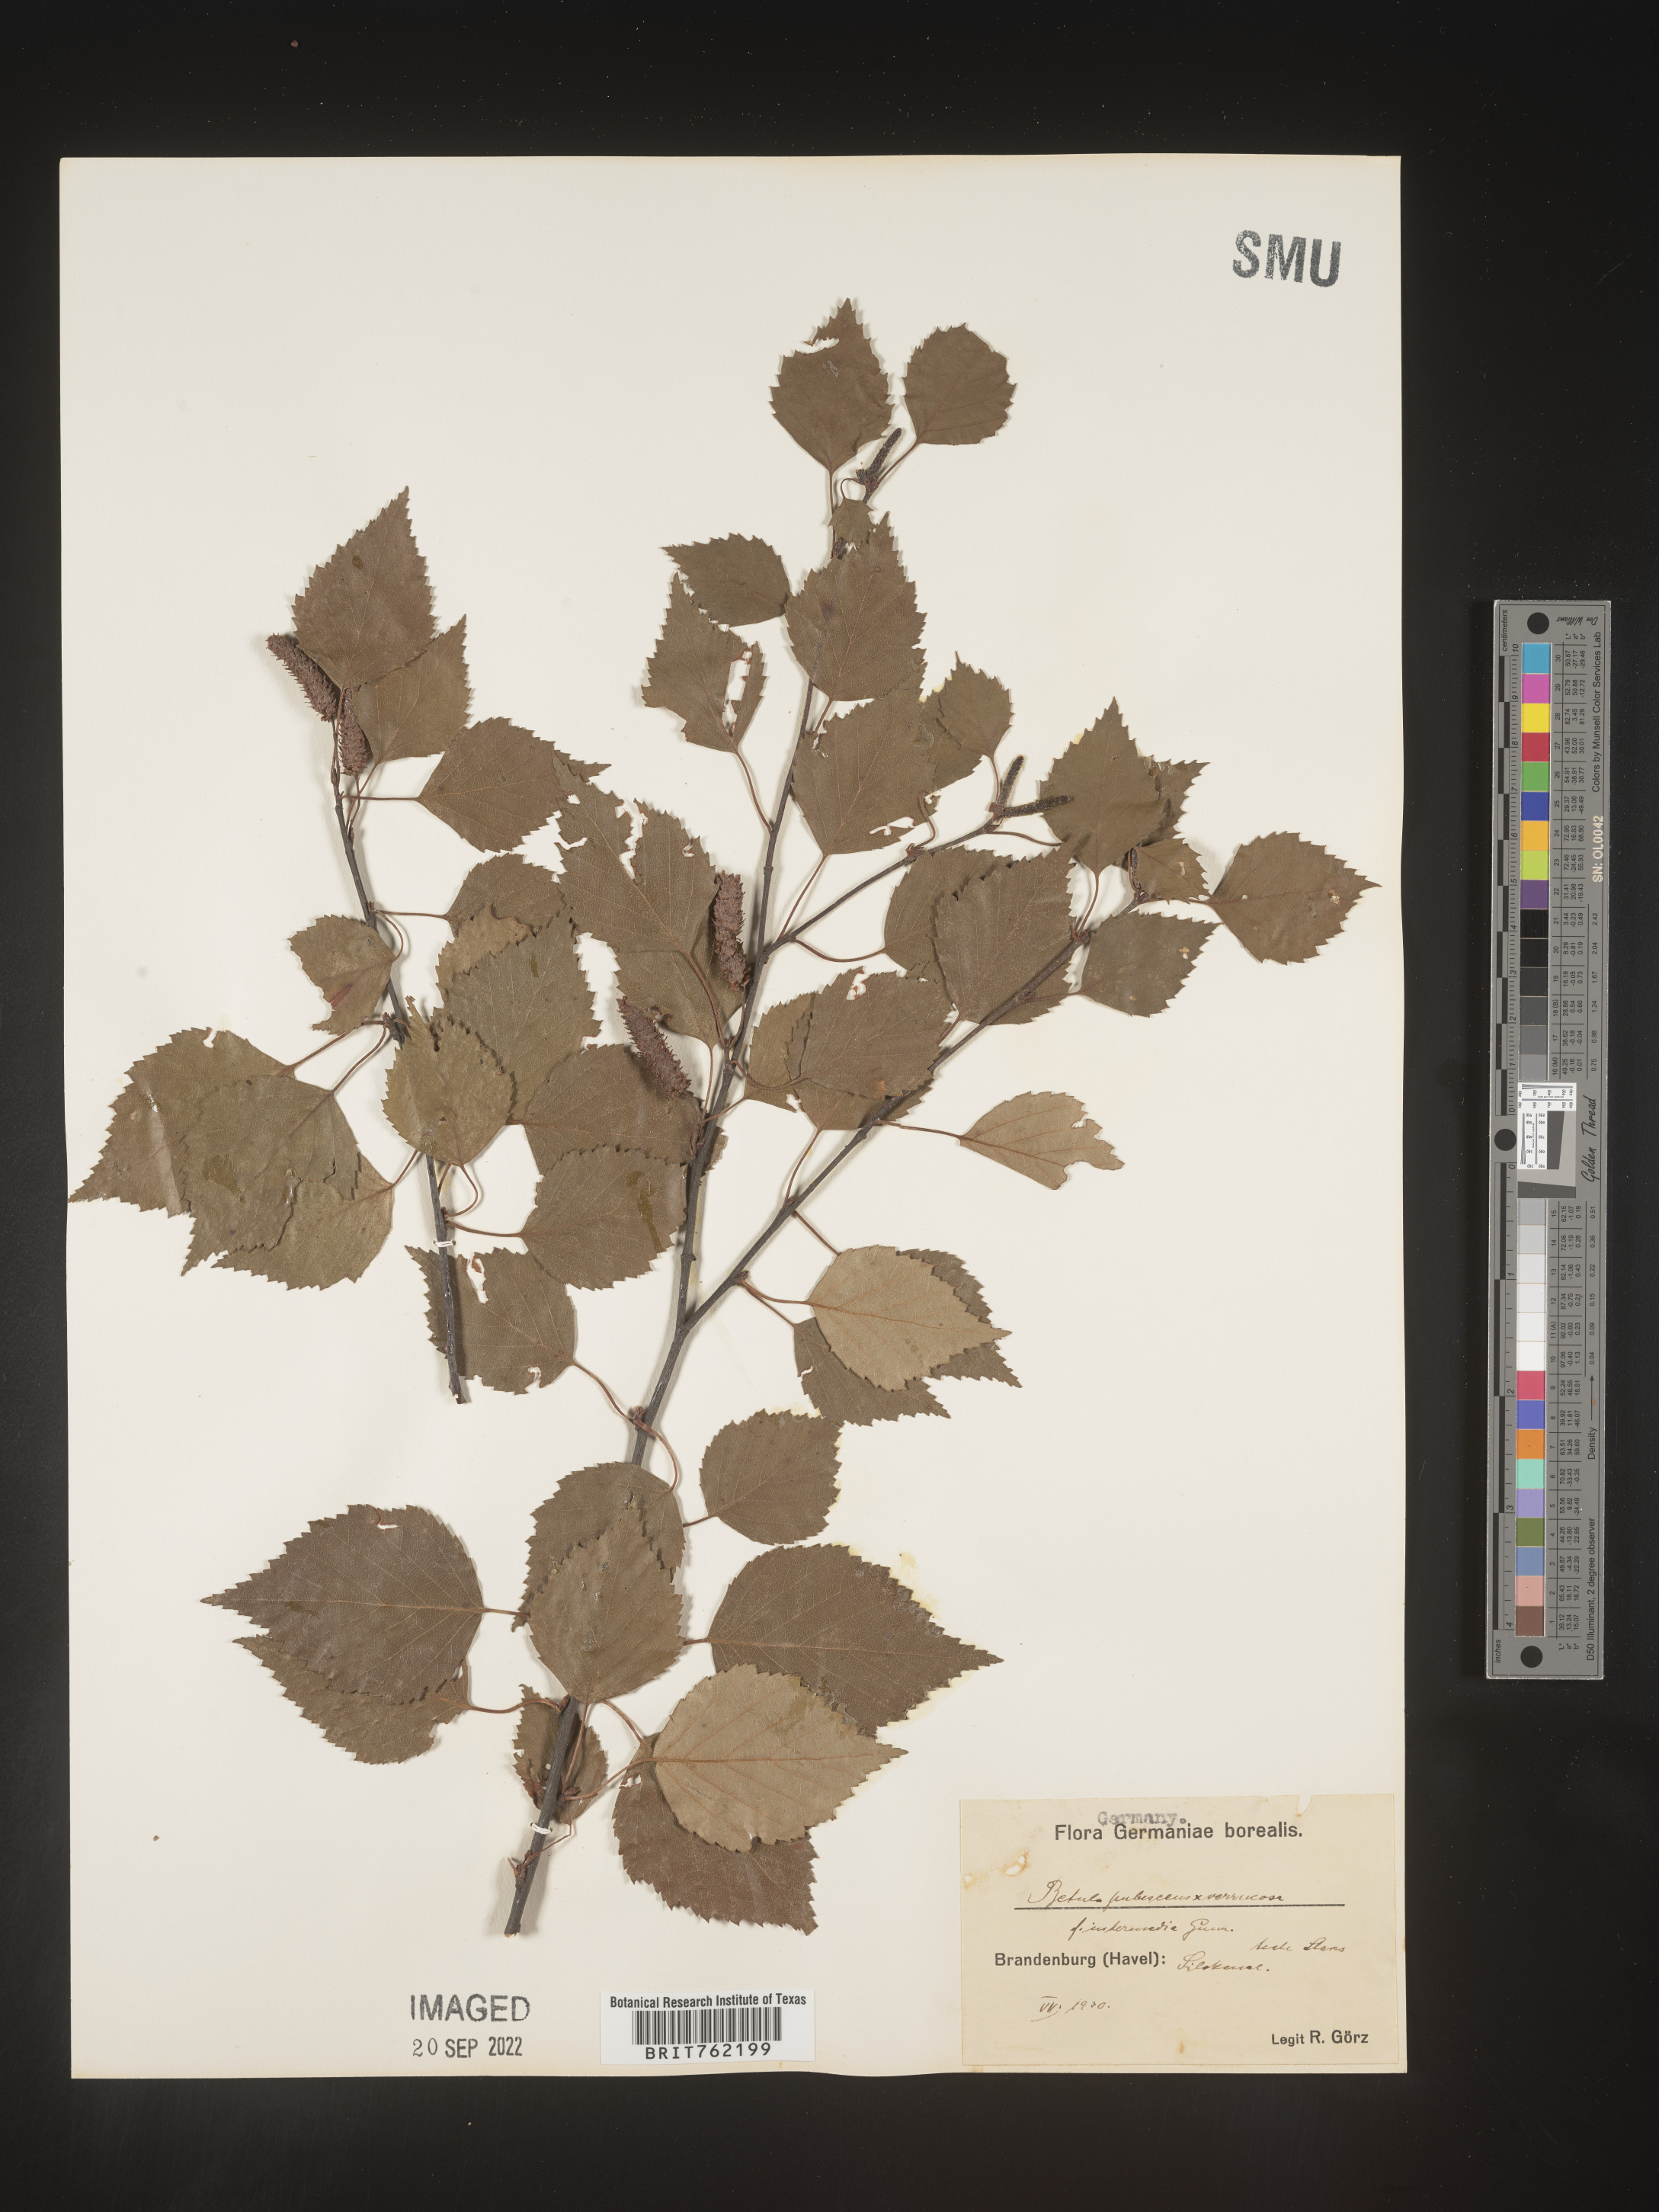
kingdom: Plantae
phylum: Tracheophyta
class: Magnoliopsida
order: Fagales
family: Betulaceae
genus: Betula
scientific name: Betula
